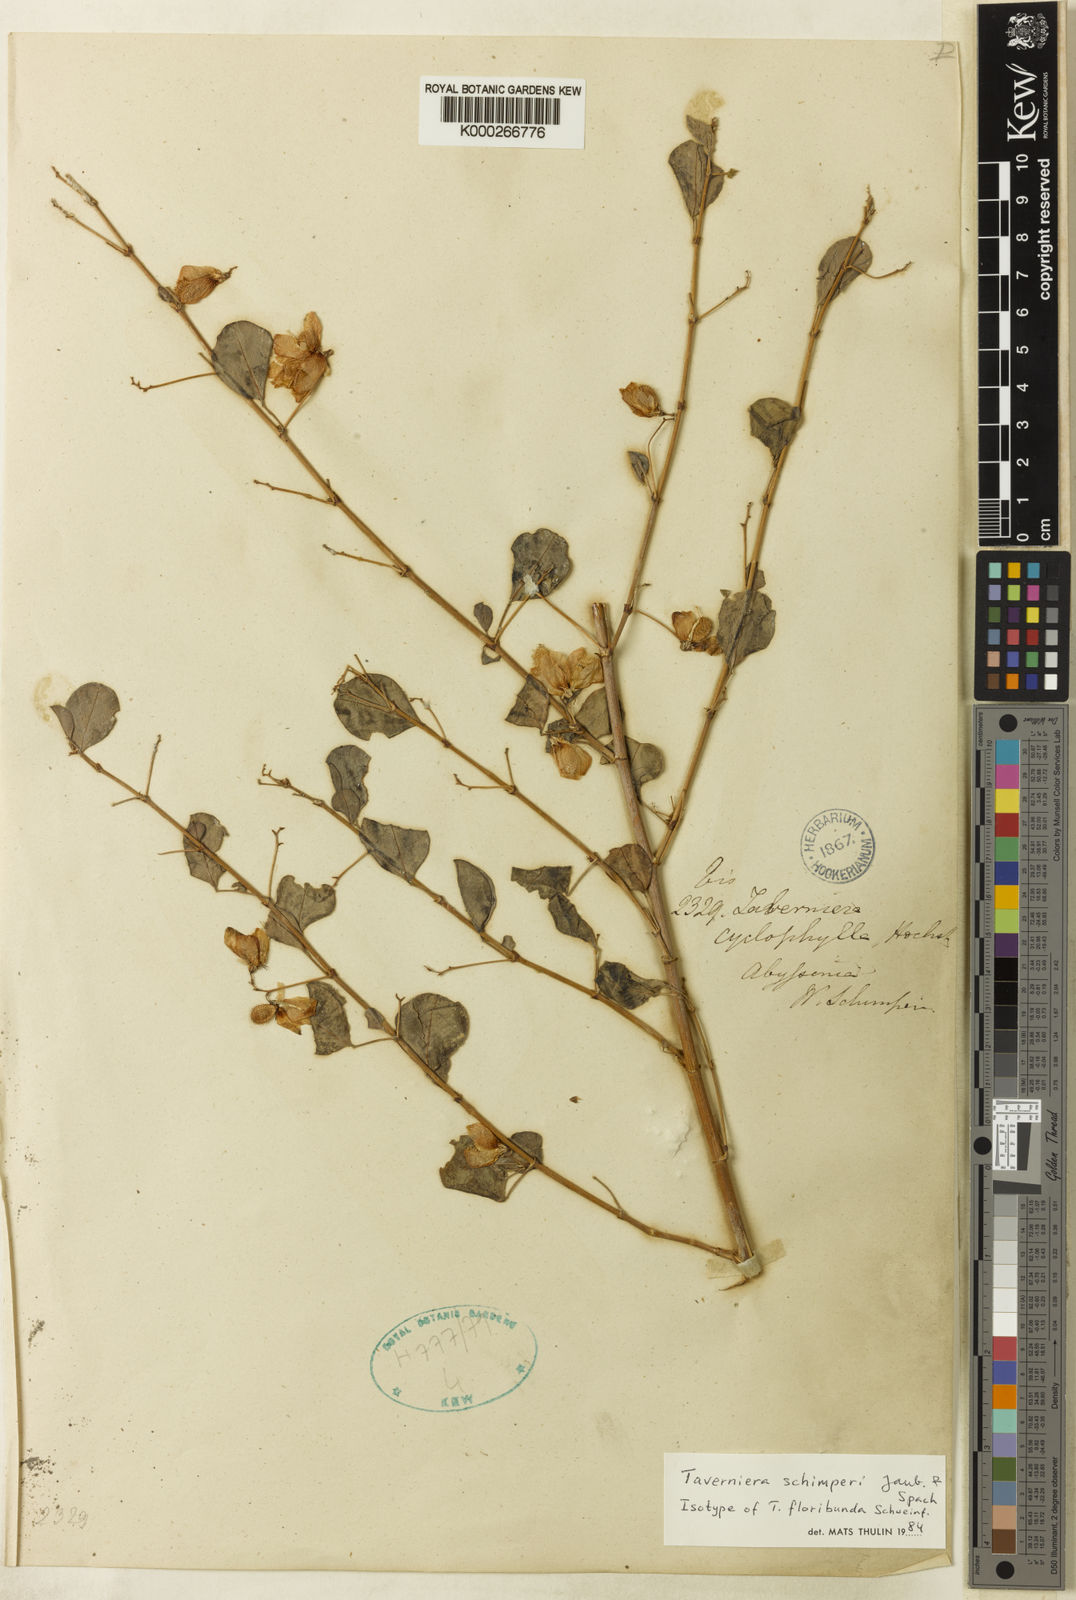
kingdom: Plantae
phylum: Tracheophyta
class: Magnoliopsida
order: Fabales
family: Fabaceae
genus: Taverniera
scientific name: Taverniera schimperi
